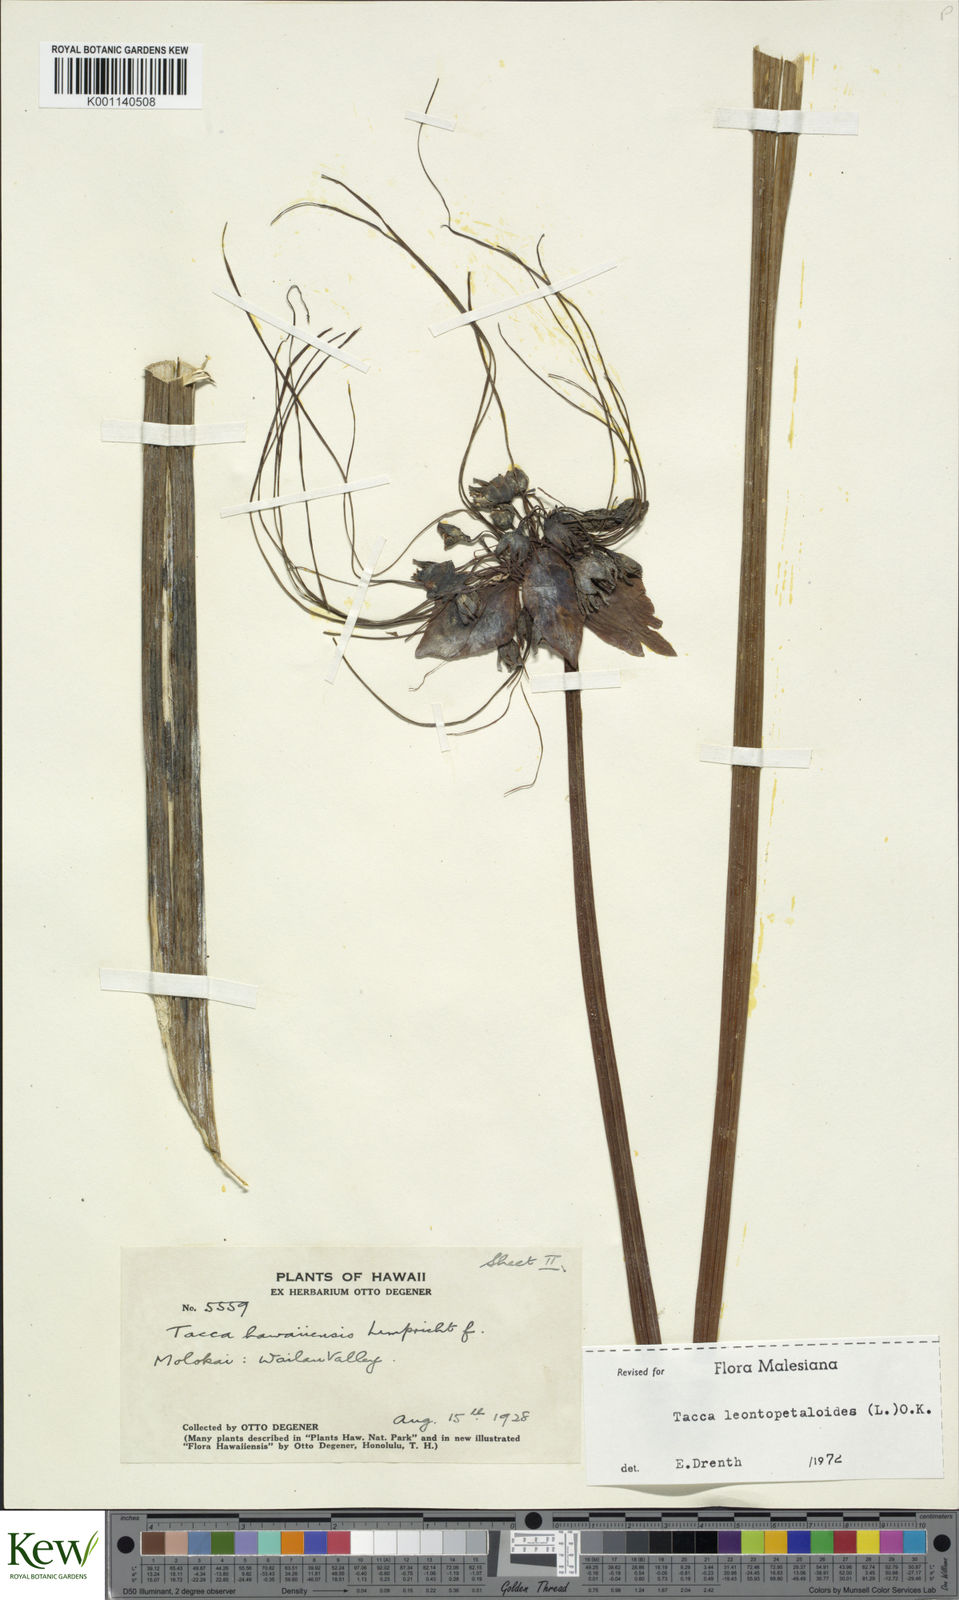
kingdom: Plantae
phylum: Tracheophyta
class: Liliopsida
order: Dioscoreales
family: Dioscoreaceae
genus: Tacca
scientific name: Tacca leontopetaloides
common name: Arrowroot
